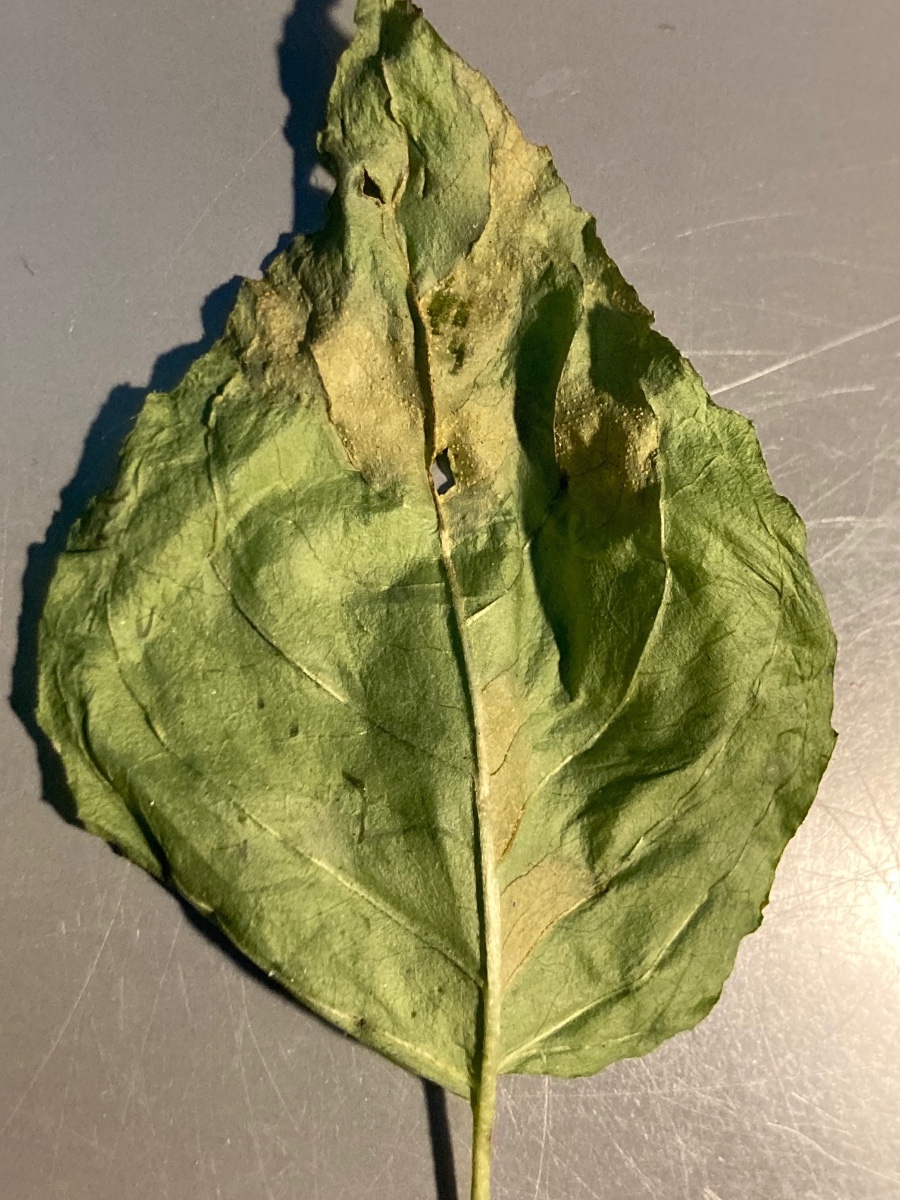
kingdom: Fungi
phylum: Basidiomycota
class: Pucciniomycetes
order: Pucciniales
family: Pucciniastraceae
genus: Pucciniastrum
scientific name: Pucciniastrum circaeae
